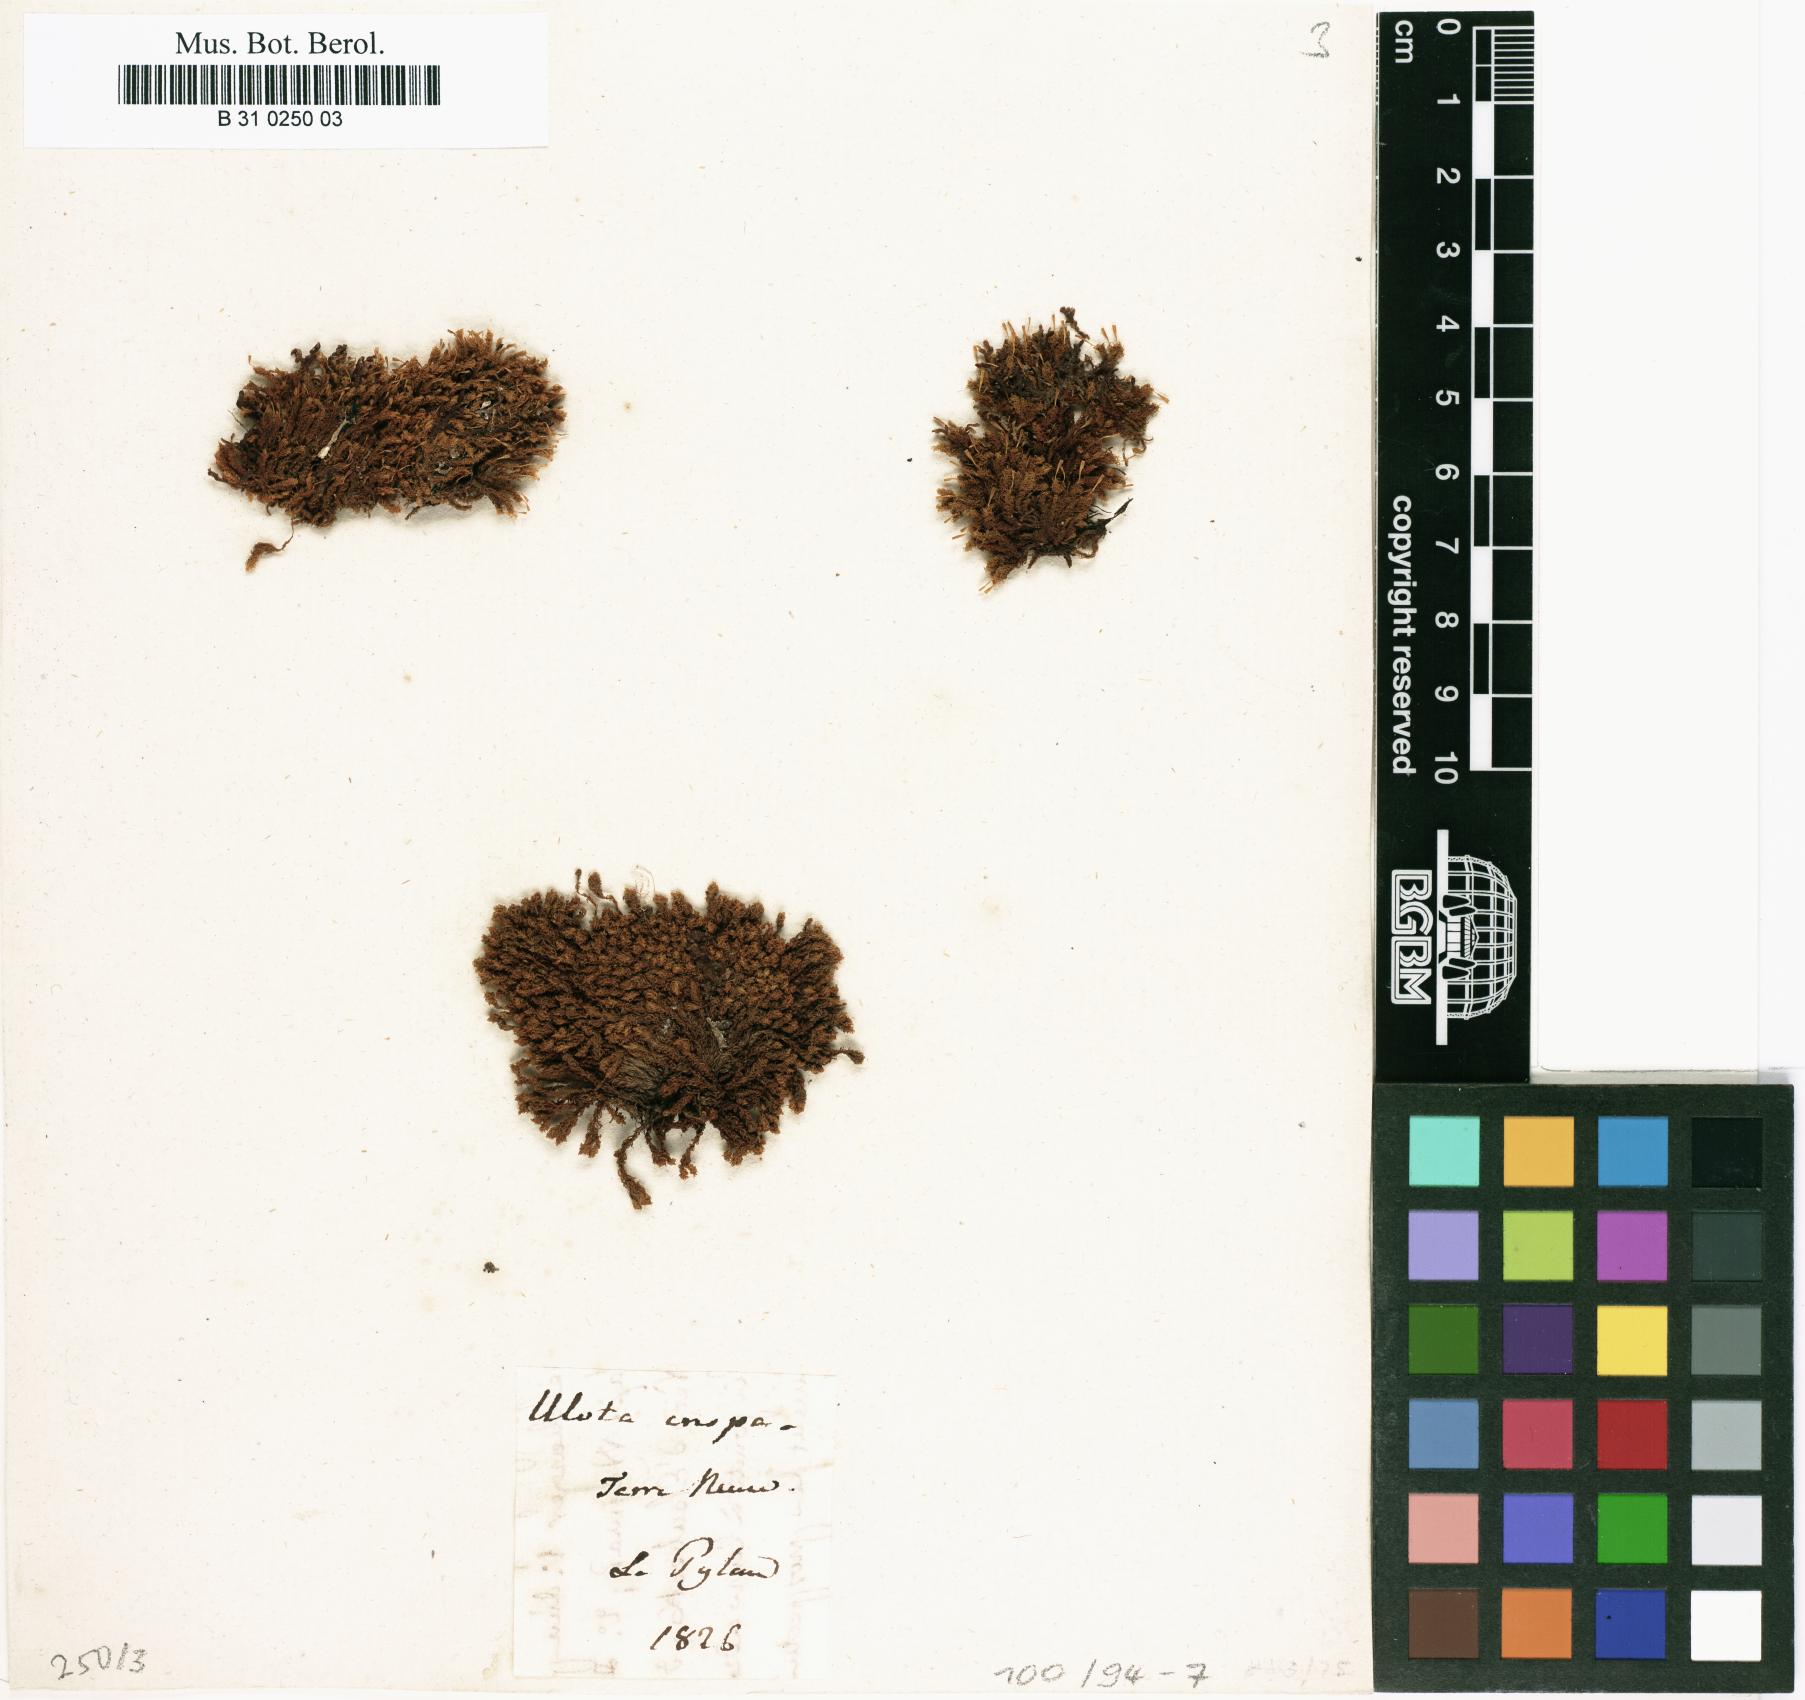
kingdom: Plantae
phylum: Bryophyta
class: Bryopsida
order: Orthotrichales
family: Orthotrichaceae
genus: Ulota
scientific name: Ulota crispa
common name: Crisped pincushion moss
